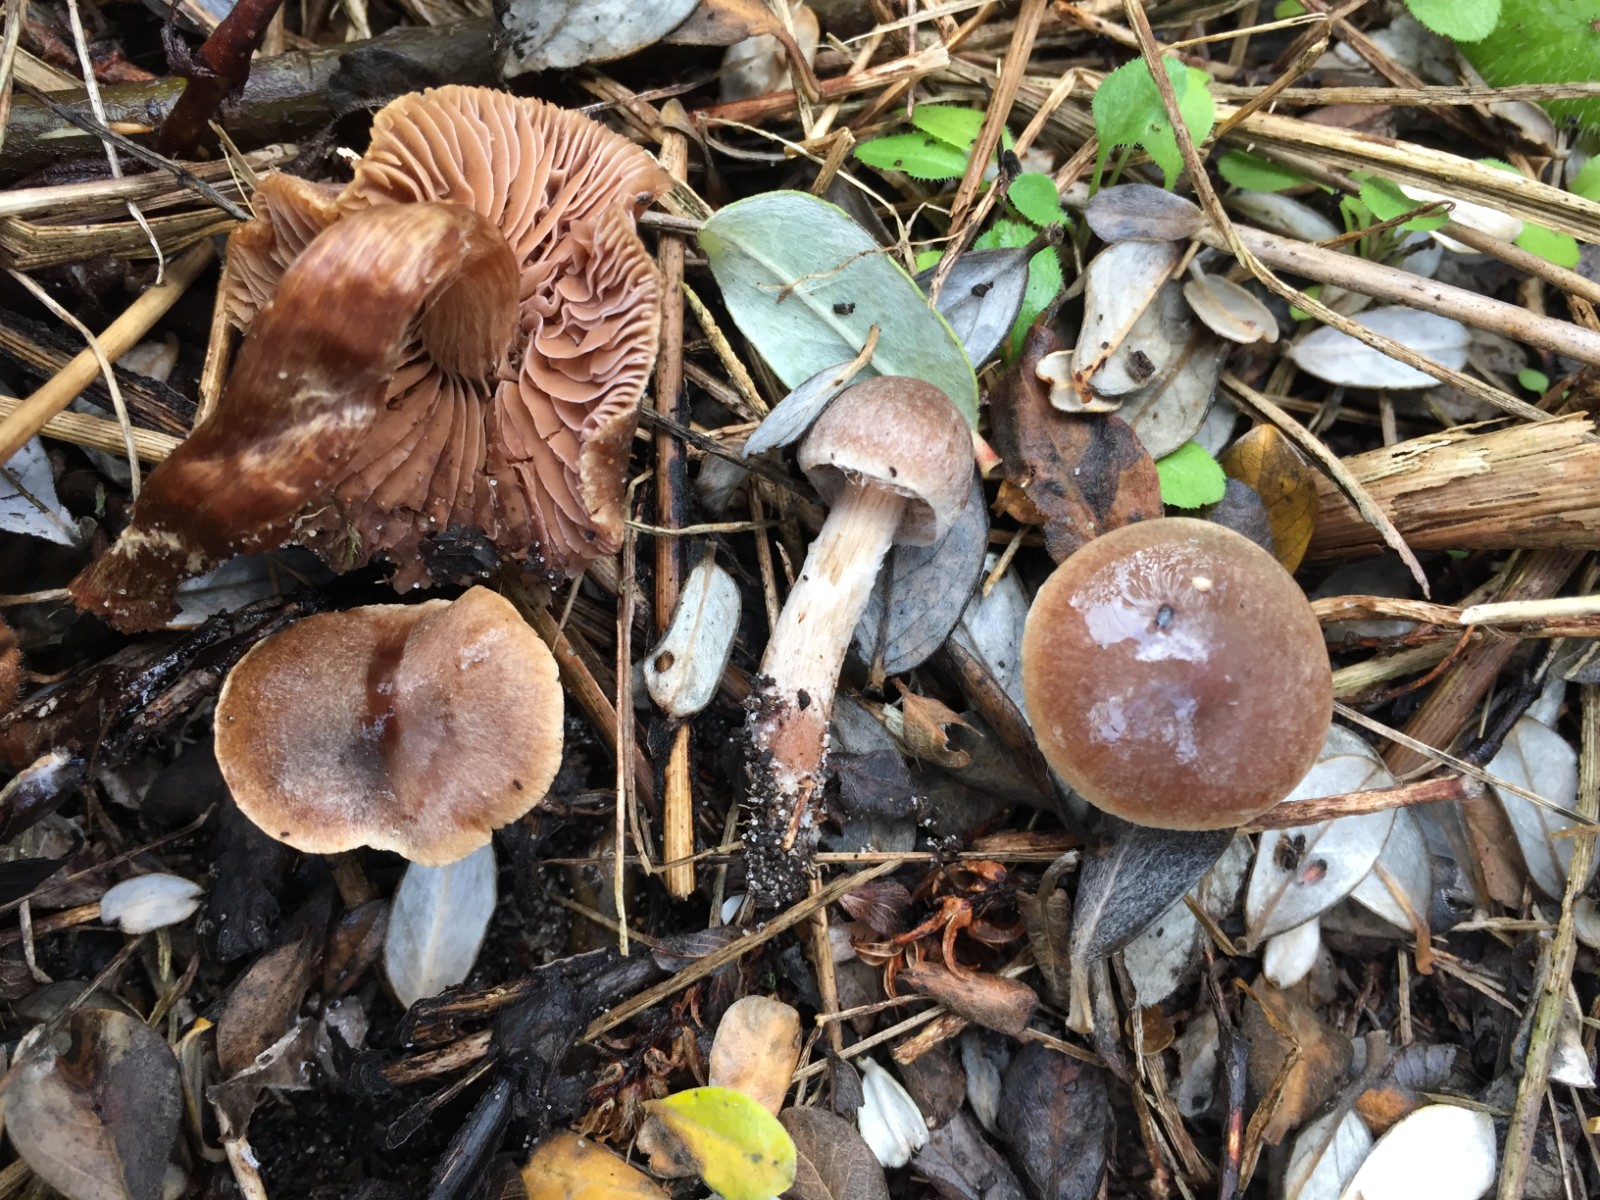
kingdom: Fungi
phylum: Basidiomycota
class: Agaricomycetes
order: Agaricales
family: Cortinariaceae
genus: Cortinarius
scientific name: Cortinarius pilatii
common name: Piláts slørhat
